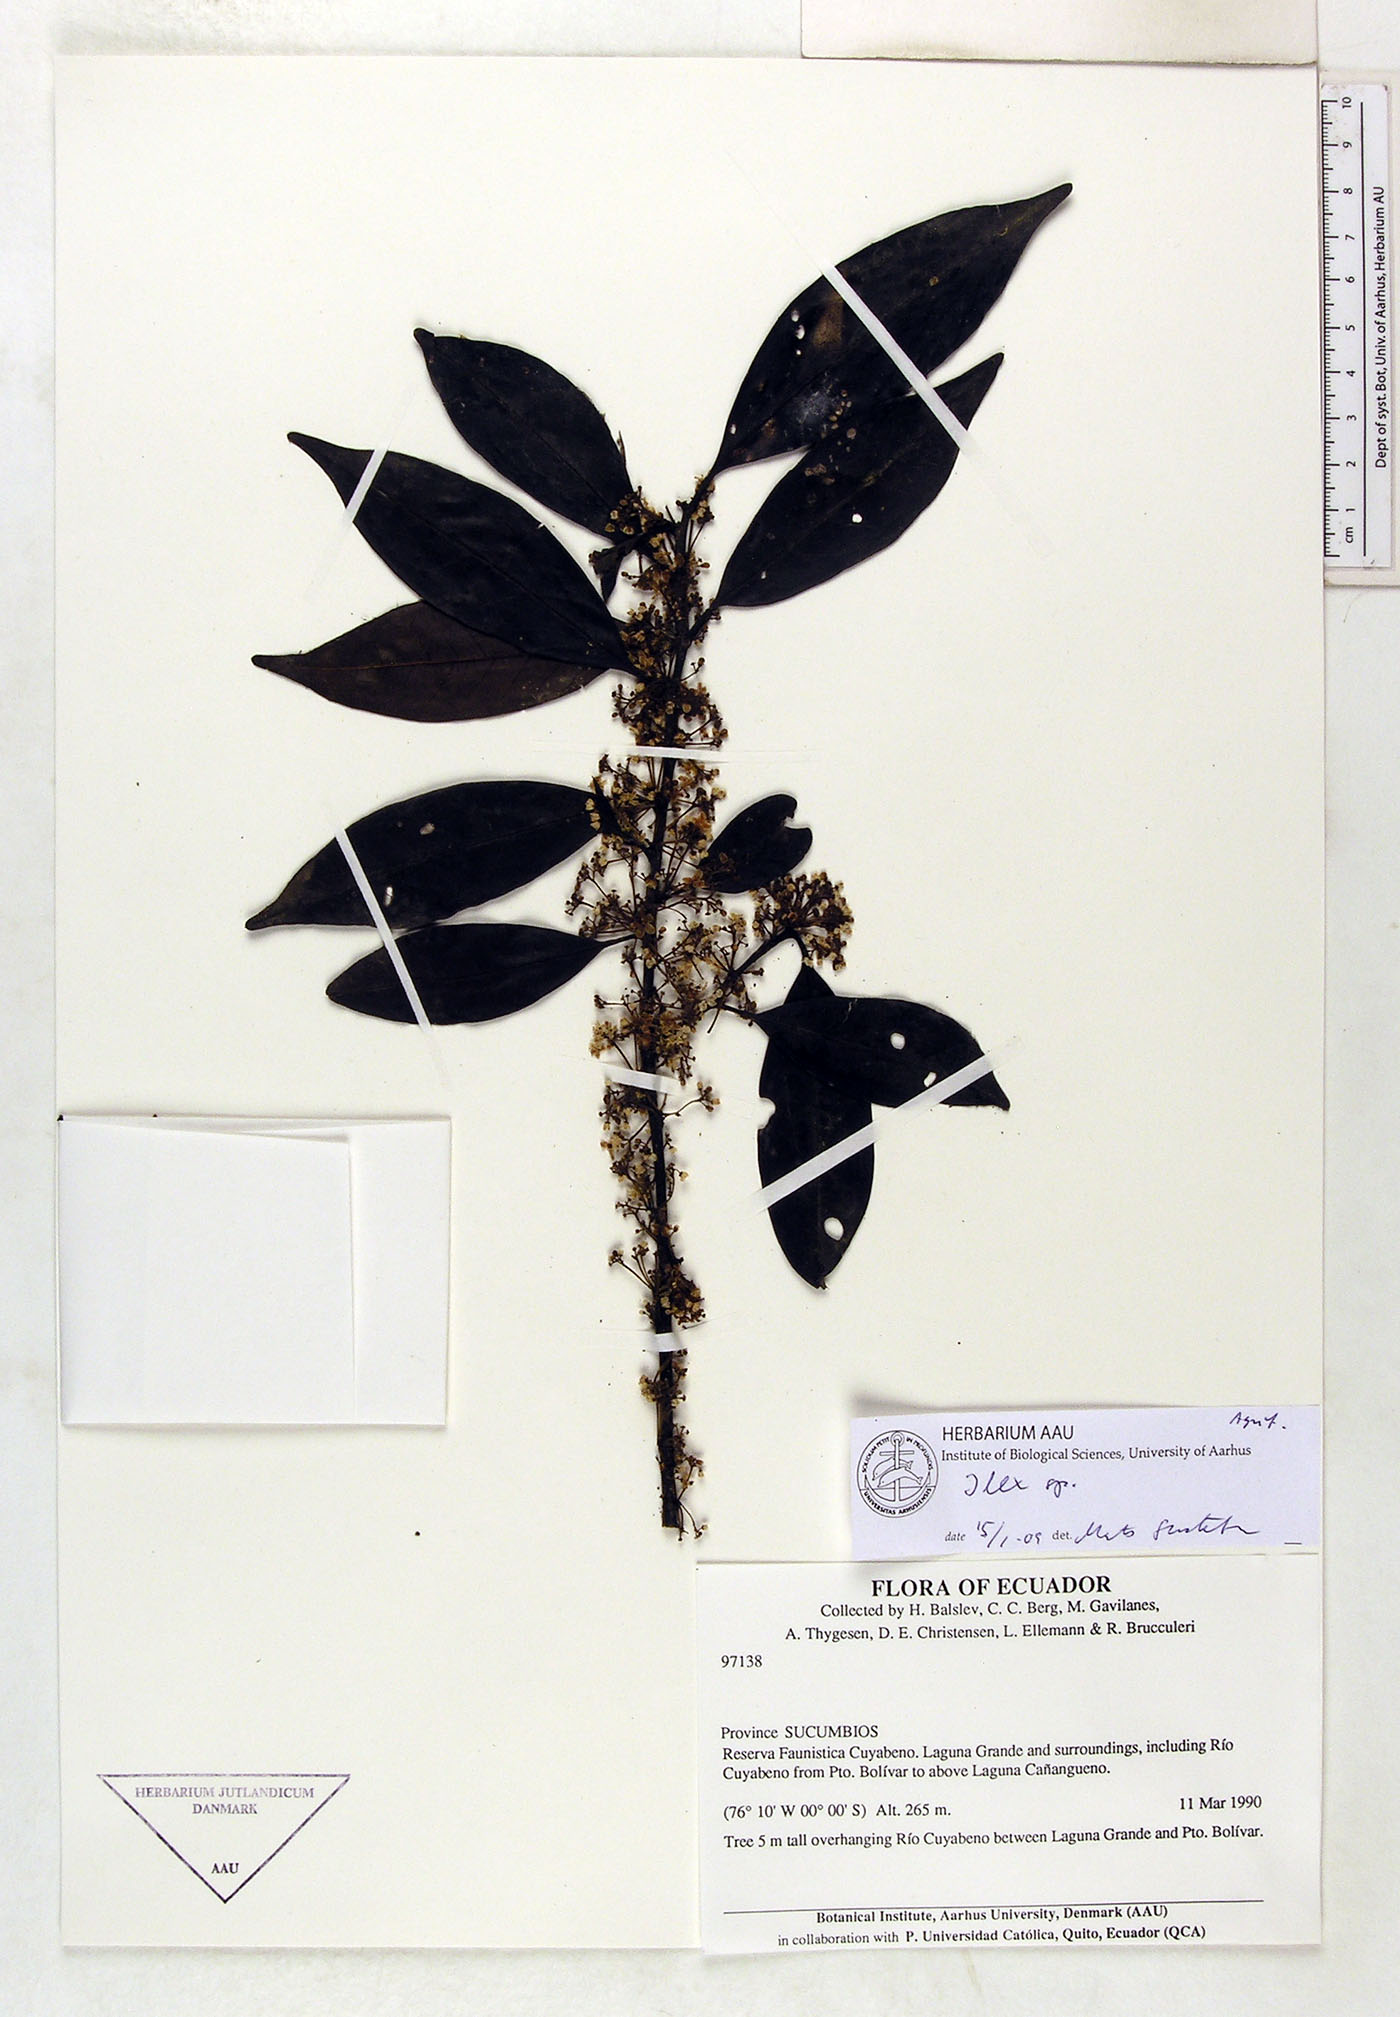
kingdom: Plantae
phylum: Tracheophyta
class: Magnoliopsida
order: Aquifoliales
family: Aquifoliaceae
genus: Ilex
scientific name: Ilex
